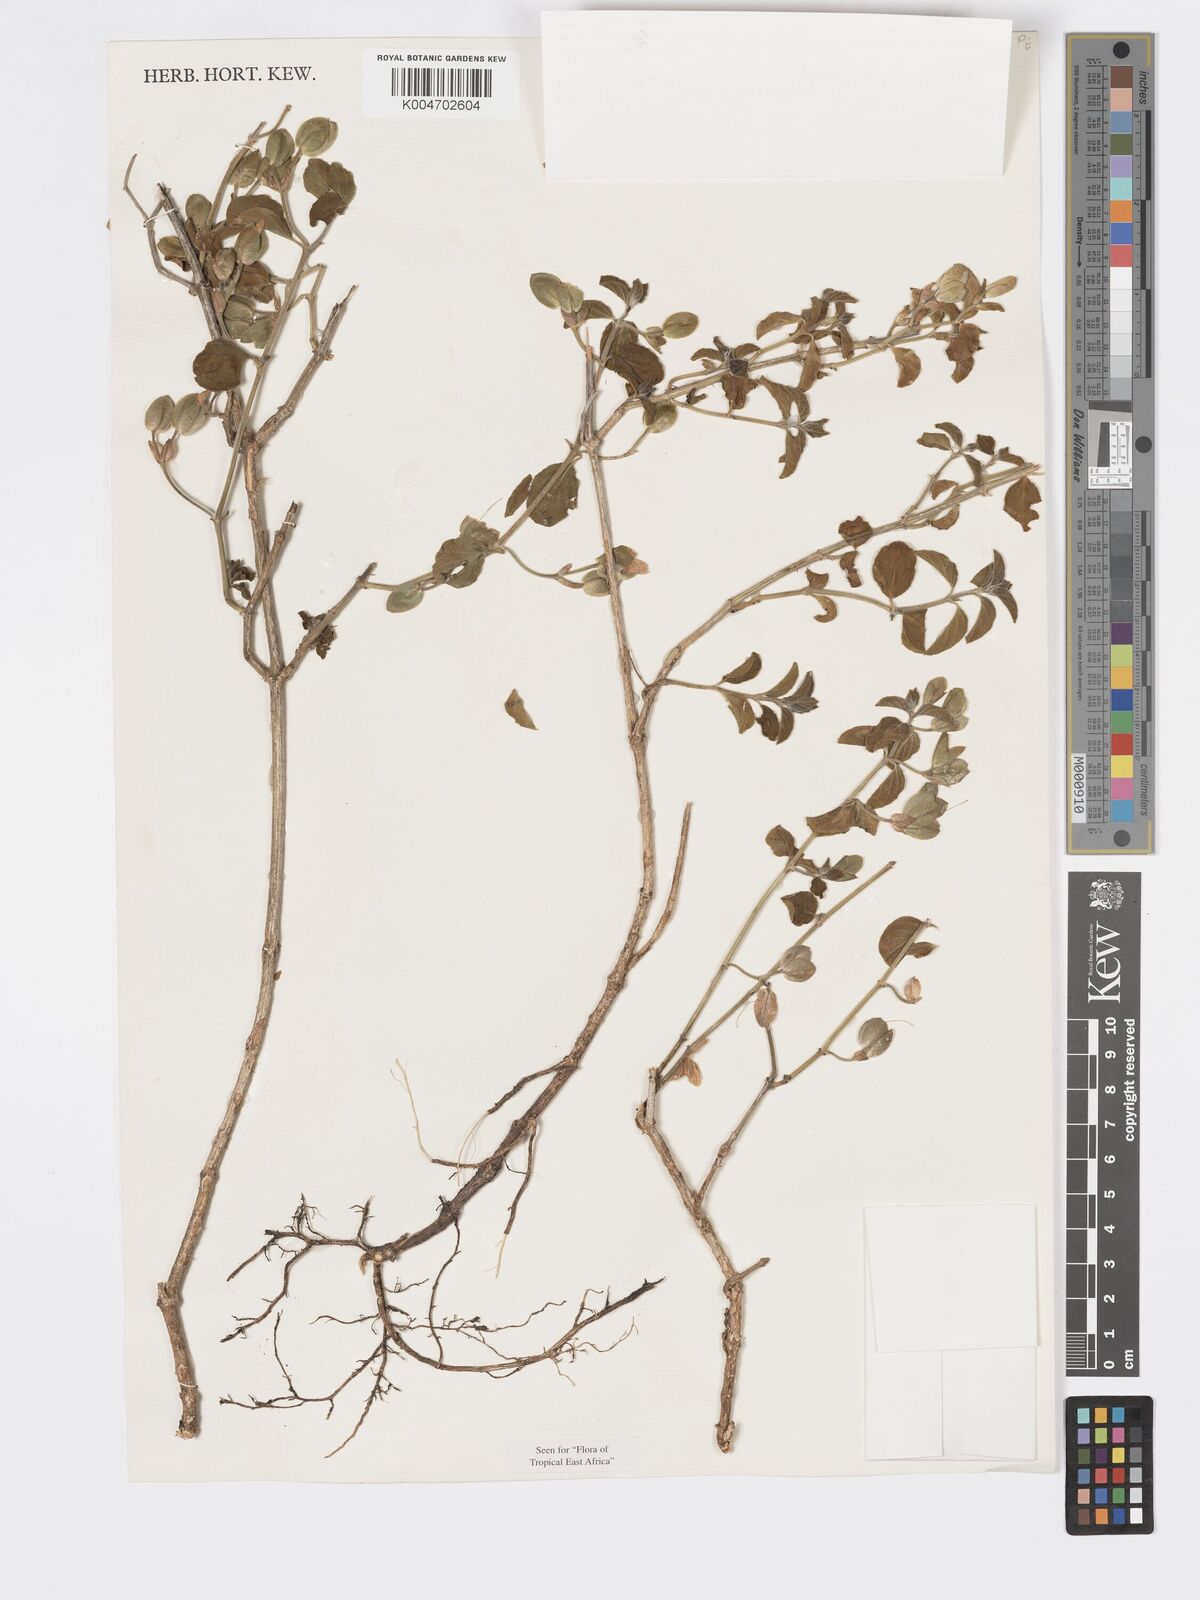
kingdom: Plantae
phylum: Tracheophyta
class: Magnoliopsida
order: Lamiales
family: Acanthaceae
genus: Dicliptera
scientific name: Dicliptera napierae
